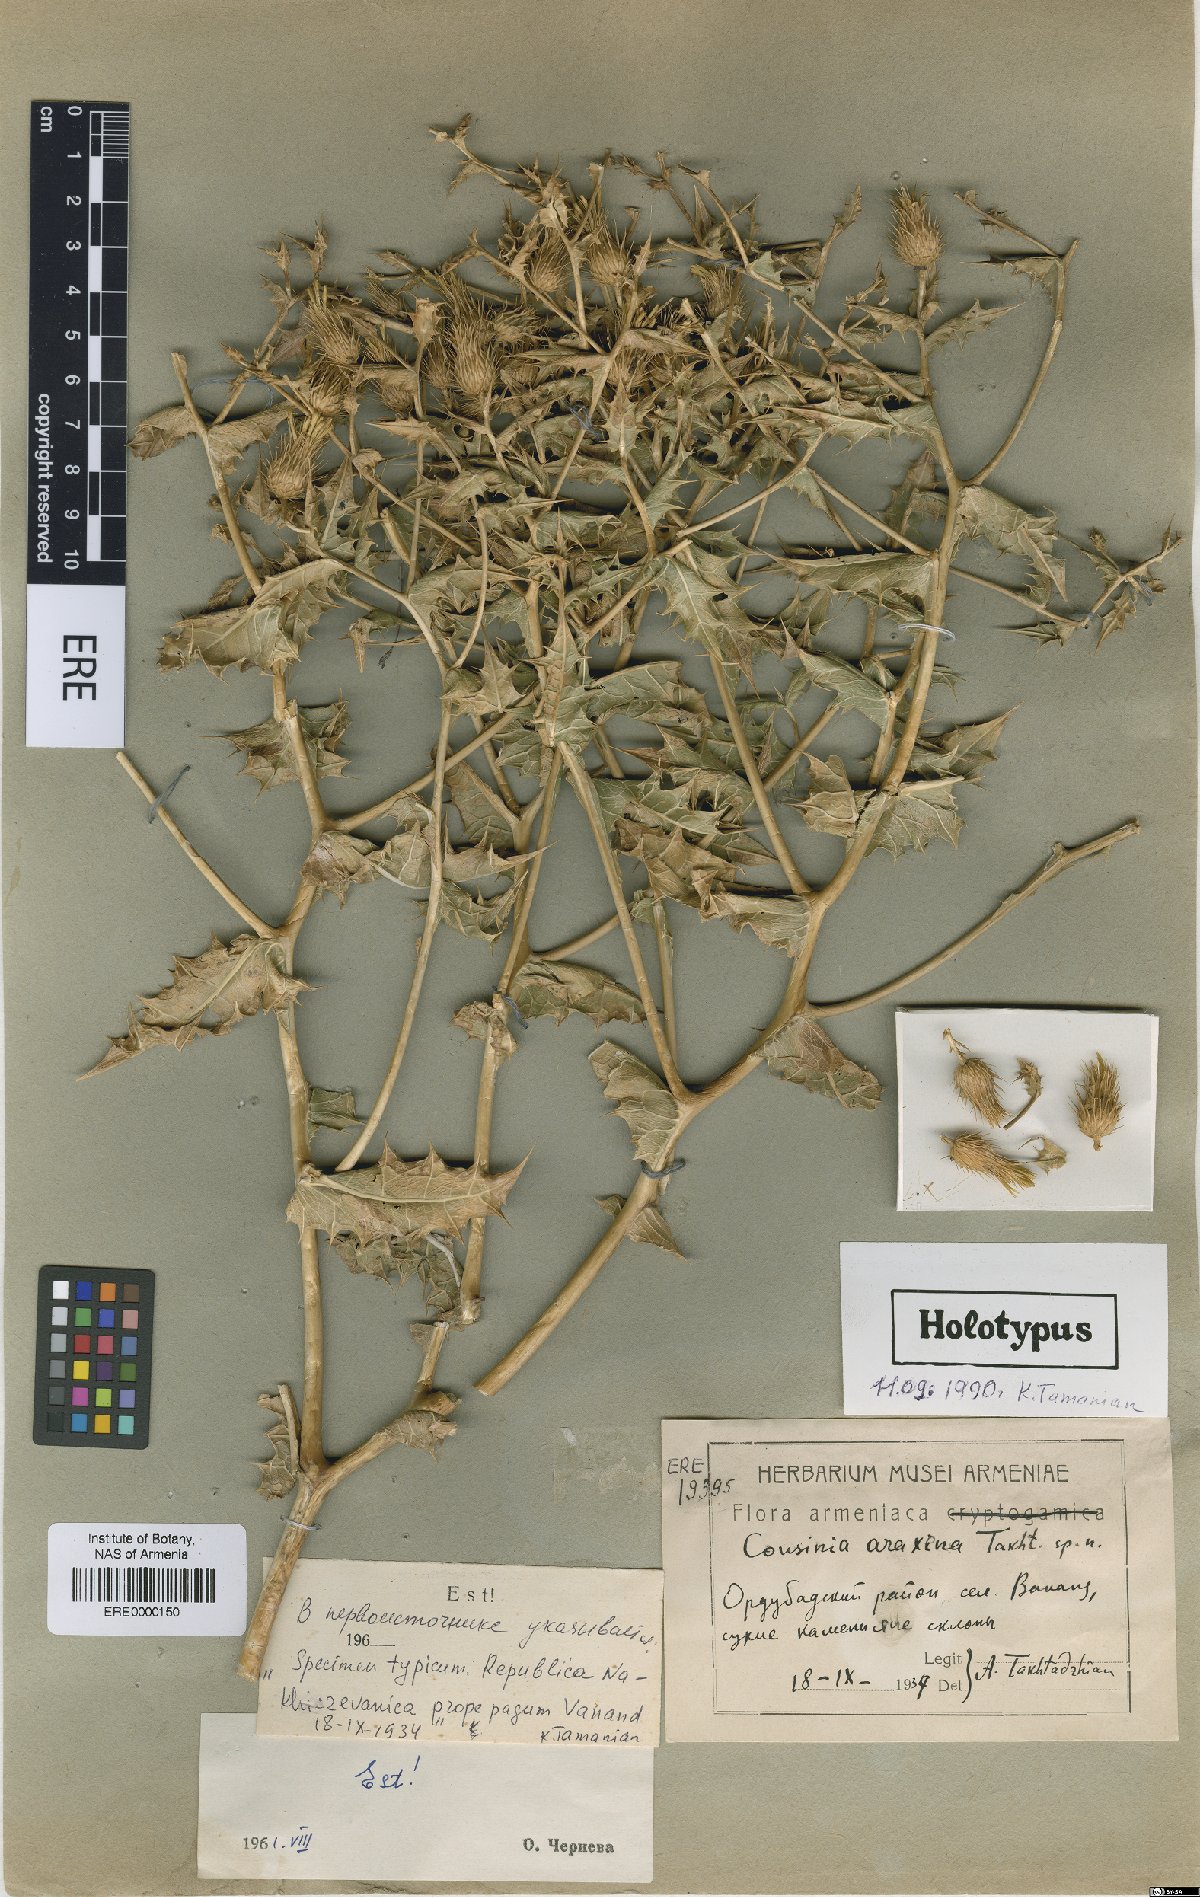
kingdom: Plantae
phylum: Tracheophyta
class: Magnoliopsida
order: Asterales
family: Asteraceae
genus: Cousinia
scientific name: Cousinia araxena
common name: Araxian cousinia
